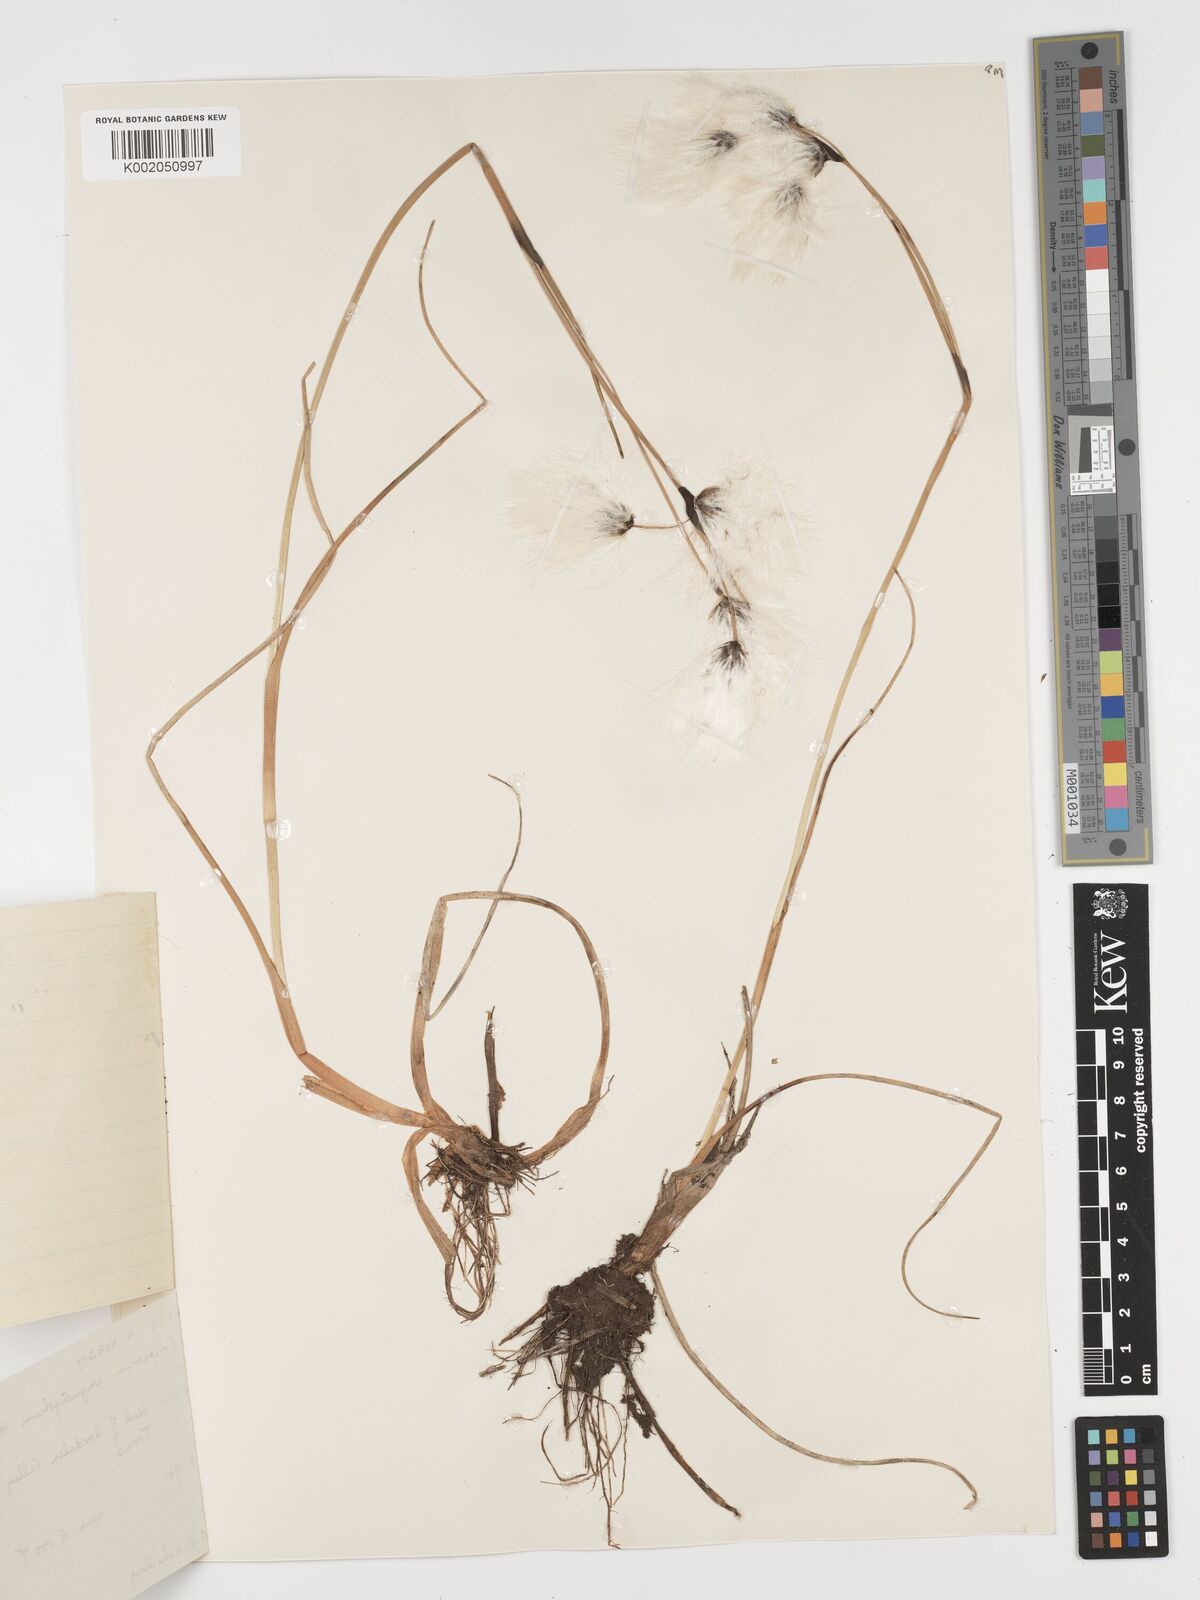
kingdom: Plantae
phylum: Tracheophyta
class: Liliopsida
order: Poales
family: Cyperaceae
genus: Eriophorum
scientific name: Eriophorum angustifolium
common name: Common cottongrass
